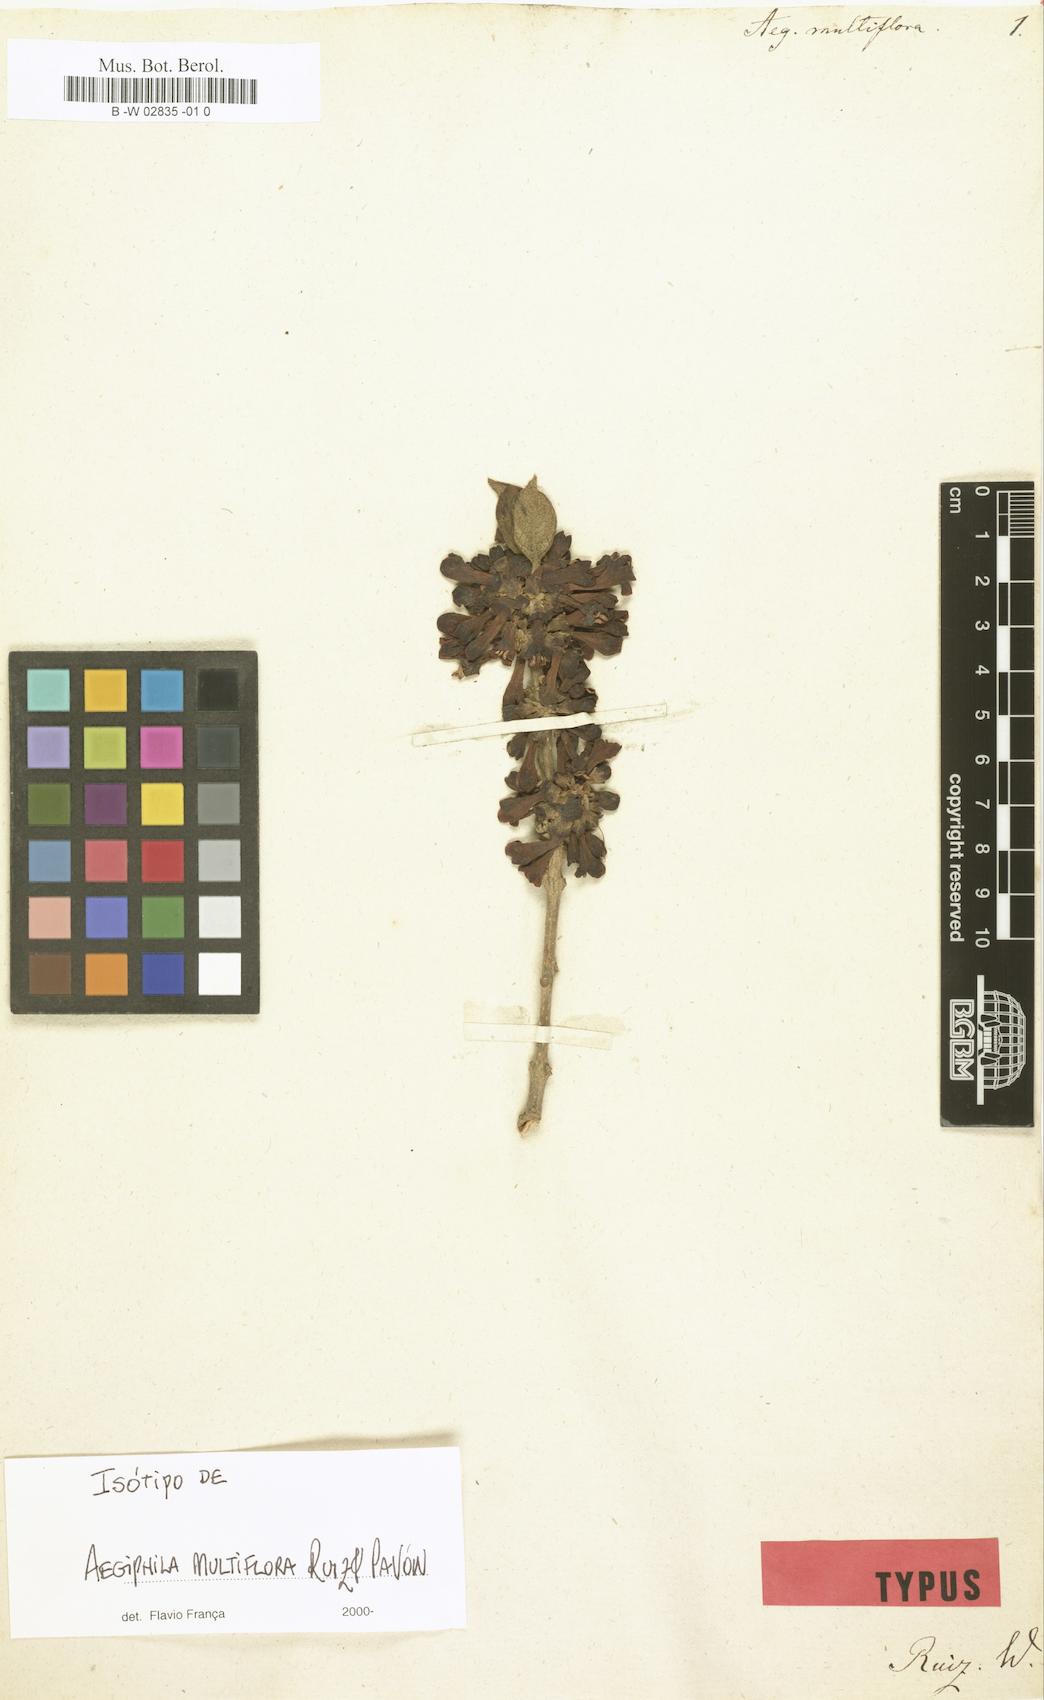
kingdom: Plantae
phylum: Tracheophyta
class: Magnoliopsida
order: Lamiales
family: Lamiaceae
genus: Aegiphila
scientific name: Aegiphila multiflora
